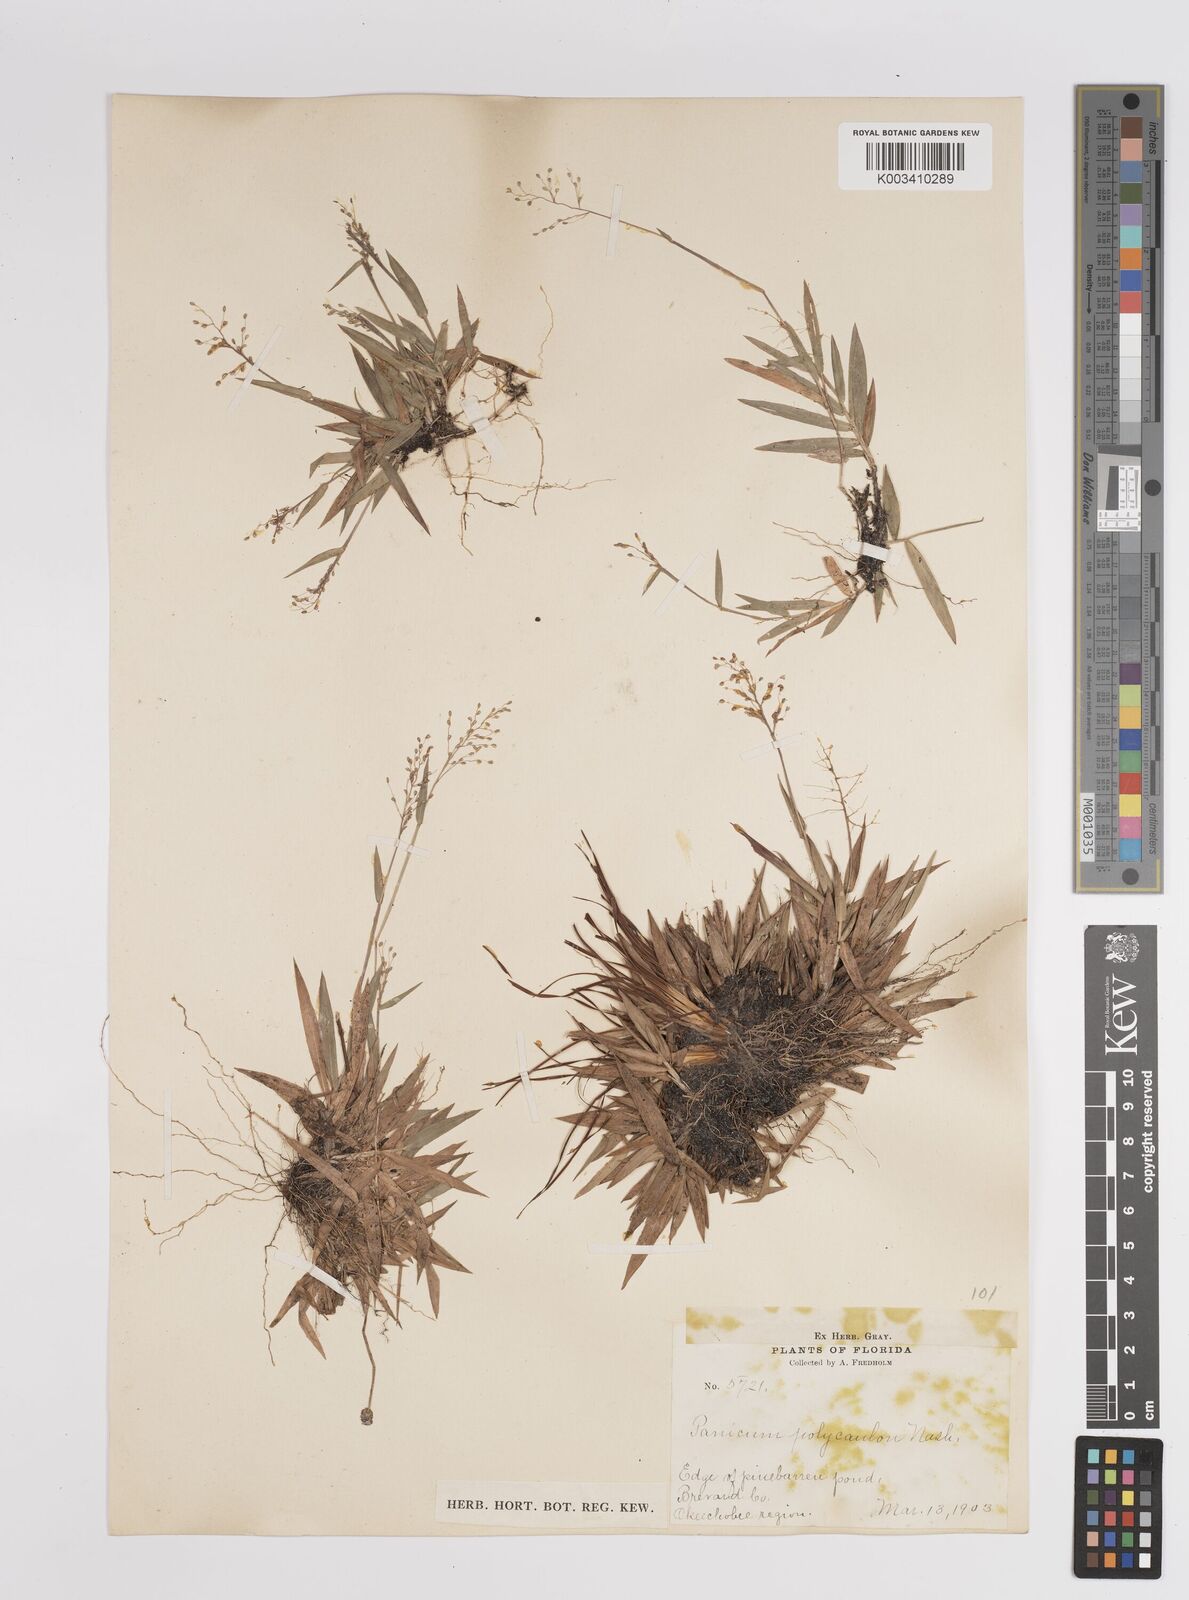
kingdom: Plantae
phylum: Tracheophyta
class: Liliopsida
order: Poales
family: Poaceae
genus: Dichanthelium
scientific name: Dichanthelium strigosum
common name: Cushion-tuft panic grass
